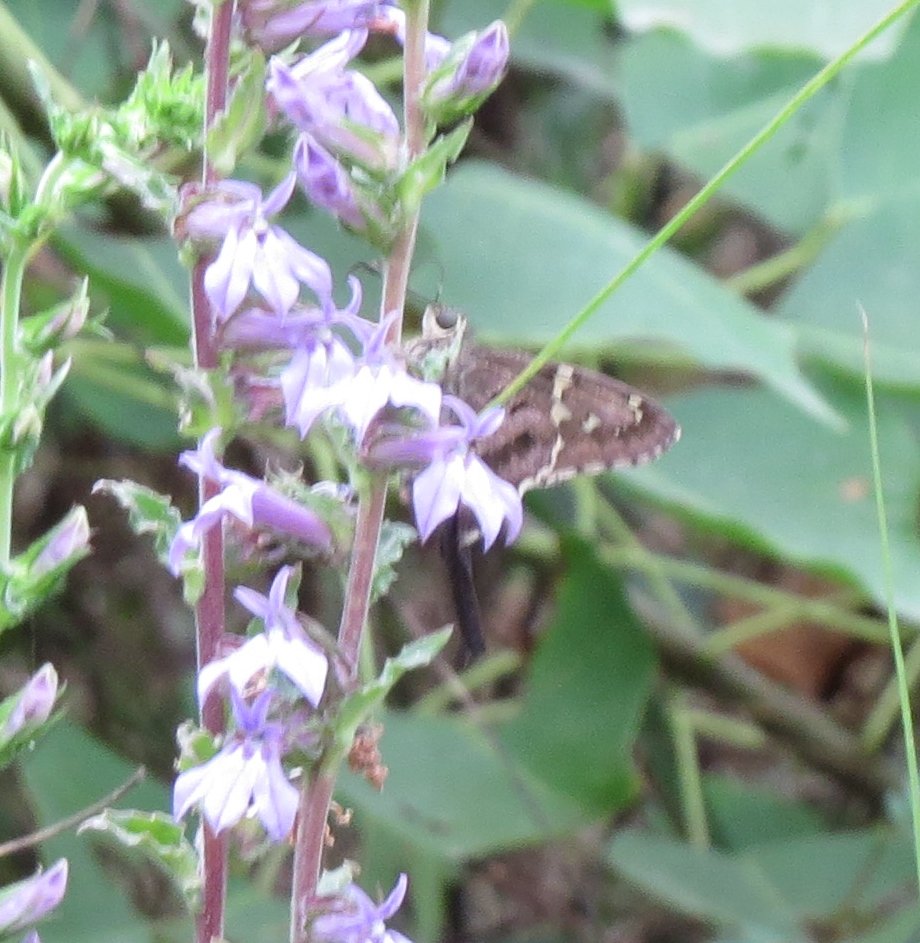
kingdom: Animalia
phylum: Arthropoda
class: Insecta
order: Lepidoptera
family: Hesperiidae
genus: Urbanus
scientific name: Urbanus proteus
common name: Long-tailed Skipper
